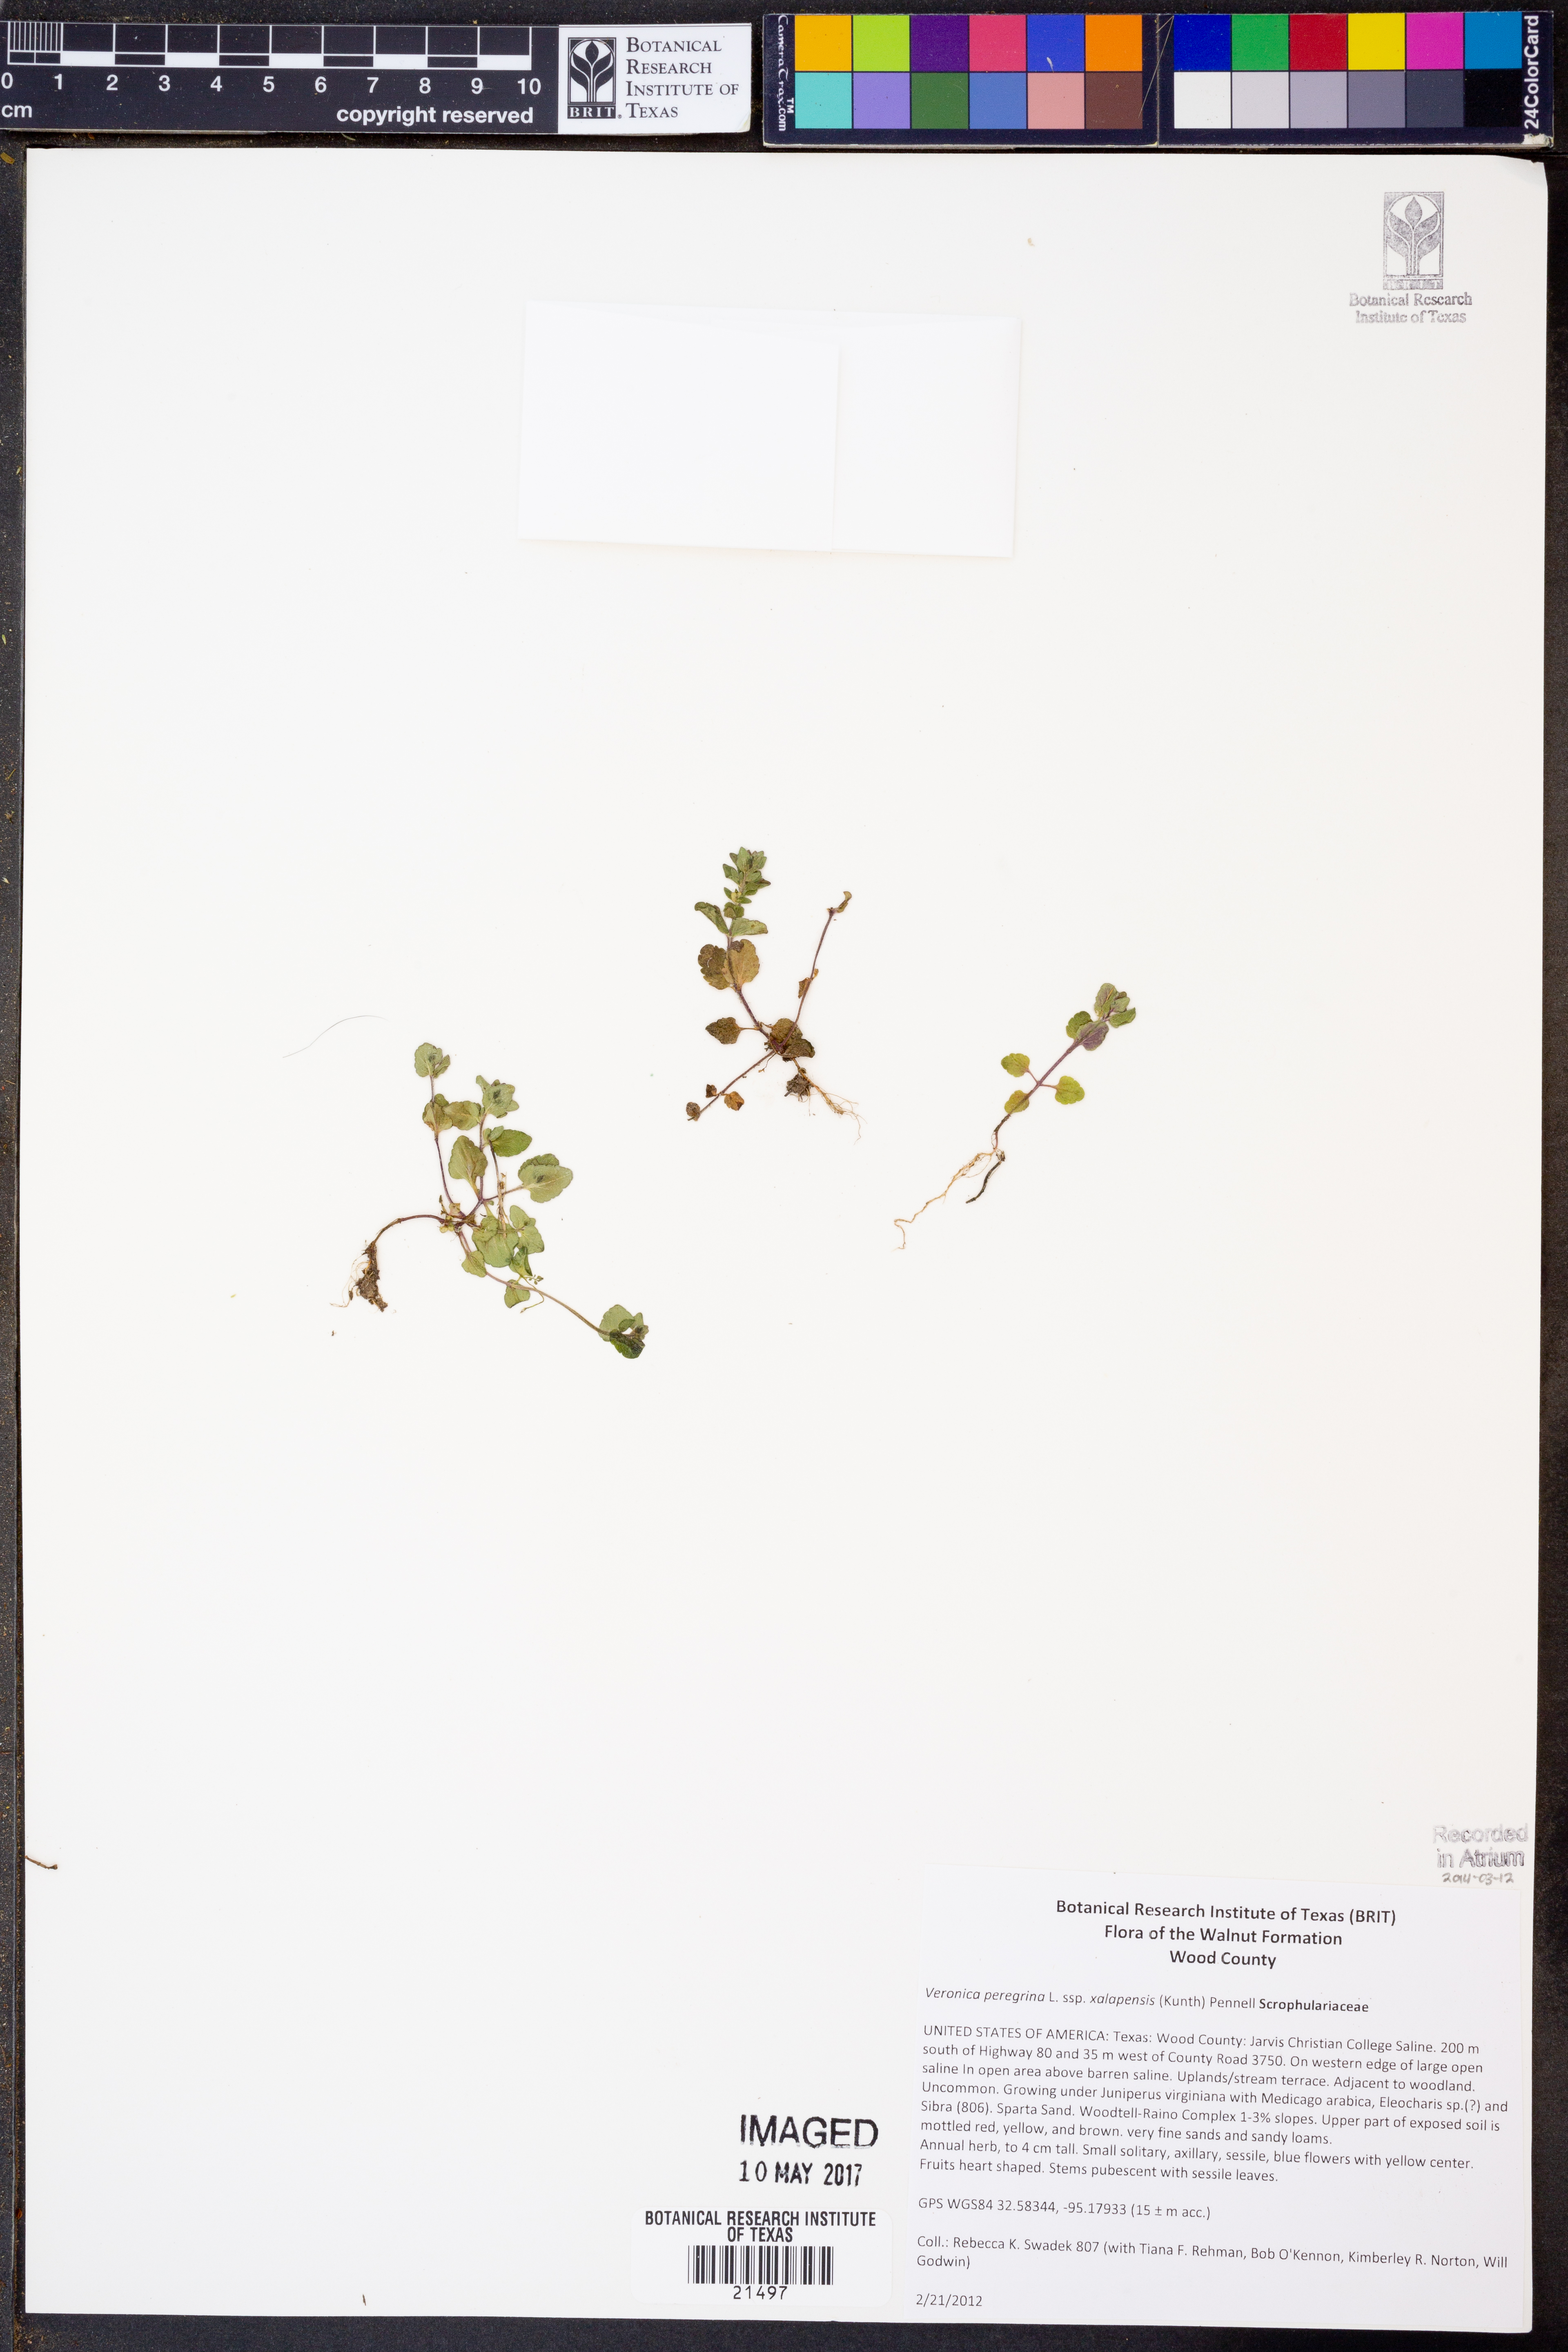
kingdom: Plantae
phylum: Tracheophyta
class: Magnoliopsida
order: Lamiales
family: Plantaginaceae
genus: Veronica
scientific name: Veronica peregrina
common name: Neckweed
